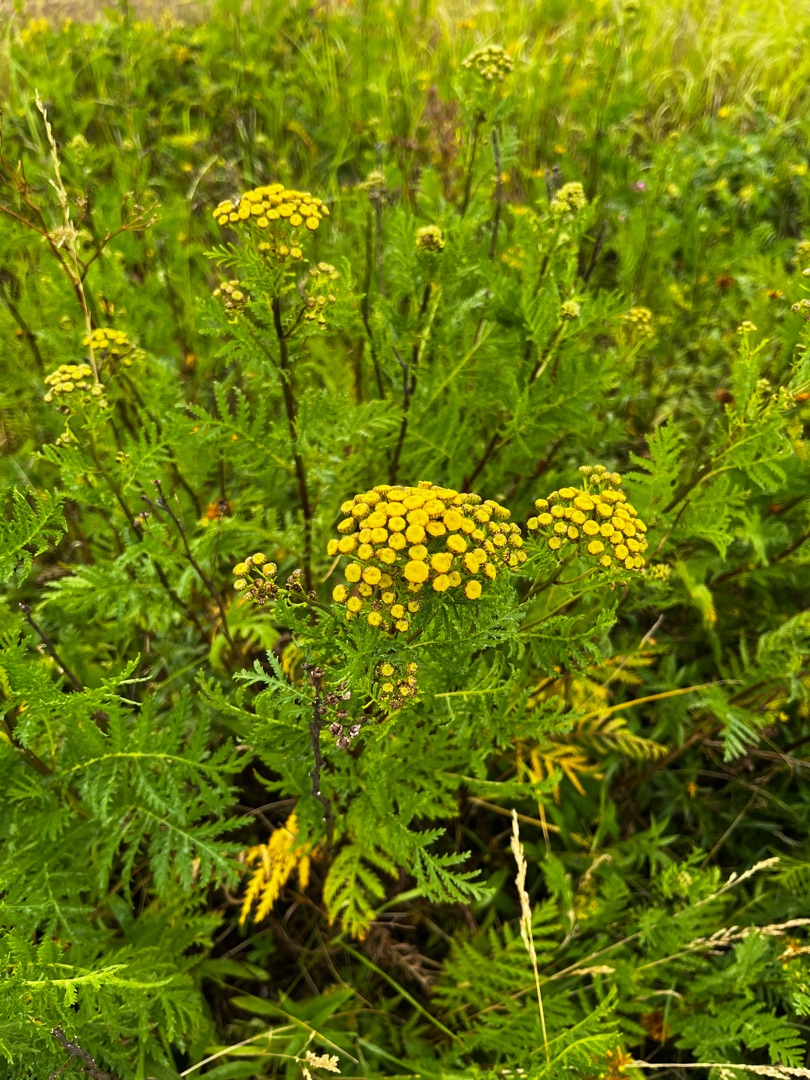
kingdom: Plantae
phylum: Tracheophyta
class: Magnoliopsida
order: Asterales
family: Asteraceae
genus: Tanacetum
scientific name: Tanacetum vulgare
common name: Rejnfan
